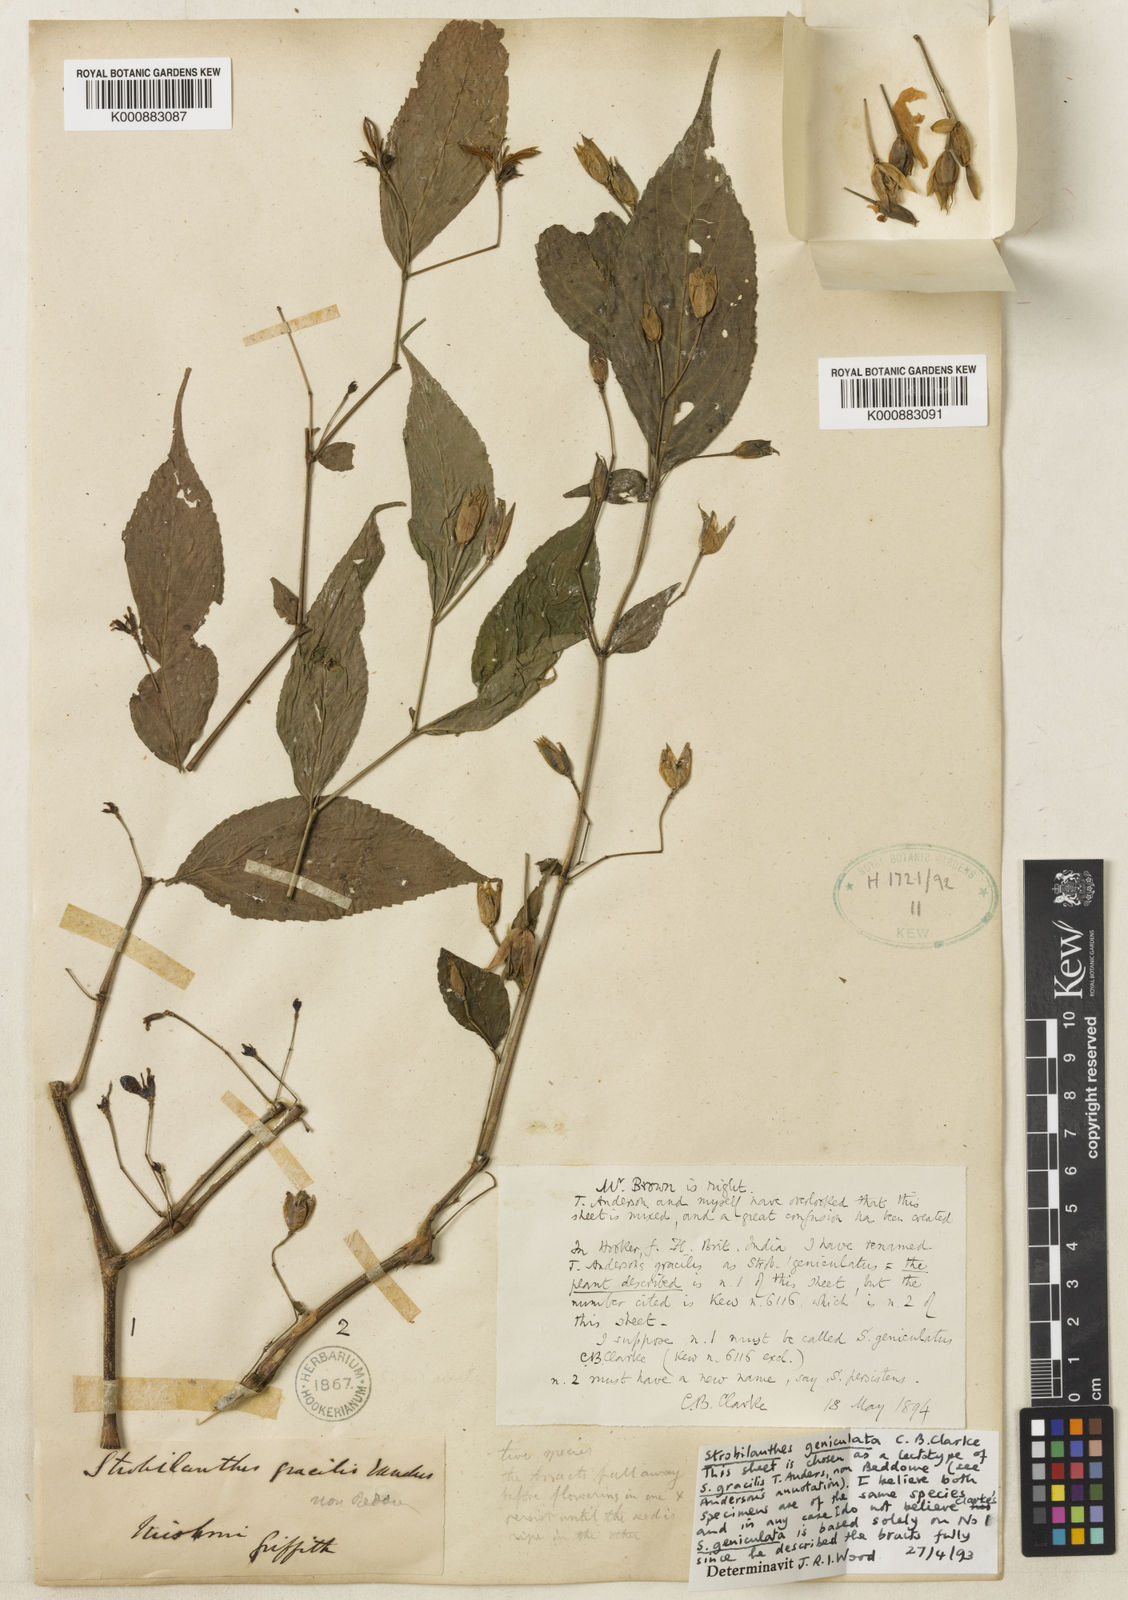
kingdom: Plantae
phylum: Tracheophyta
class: Magnoliopsida
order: Lamiales
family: Acanthaceae
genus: Strobilanthes
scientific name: Strobilanthes dimorphotricha
